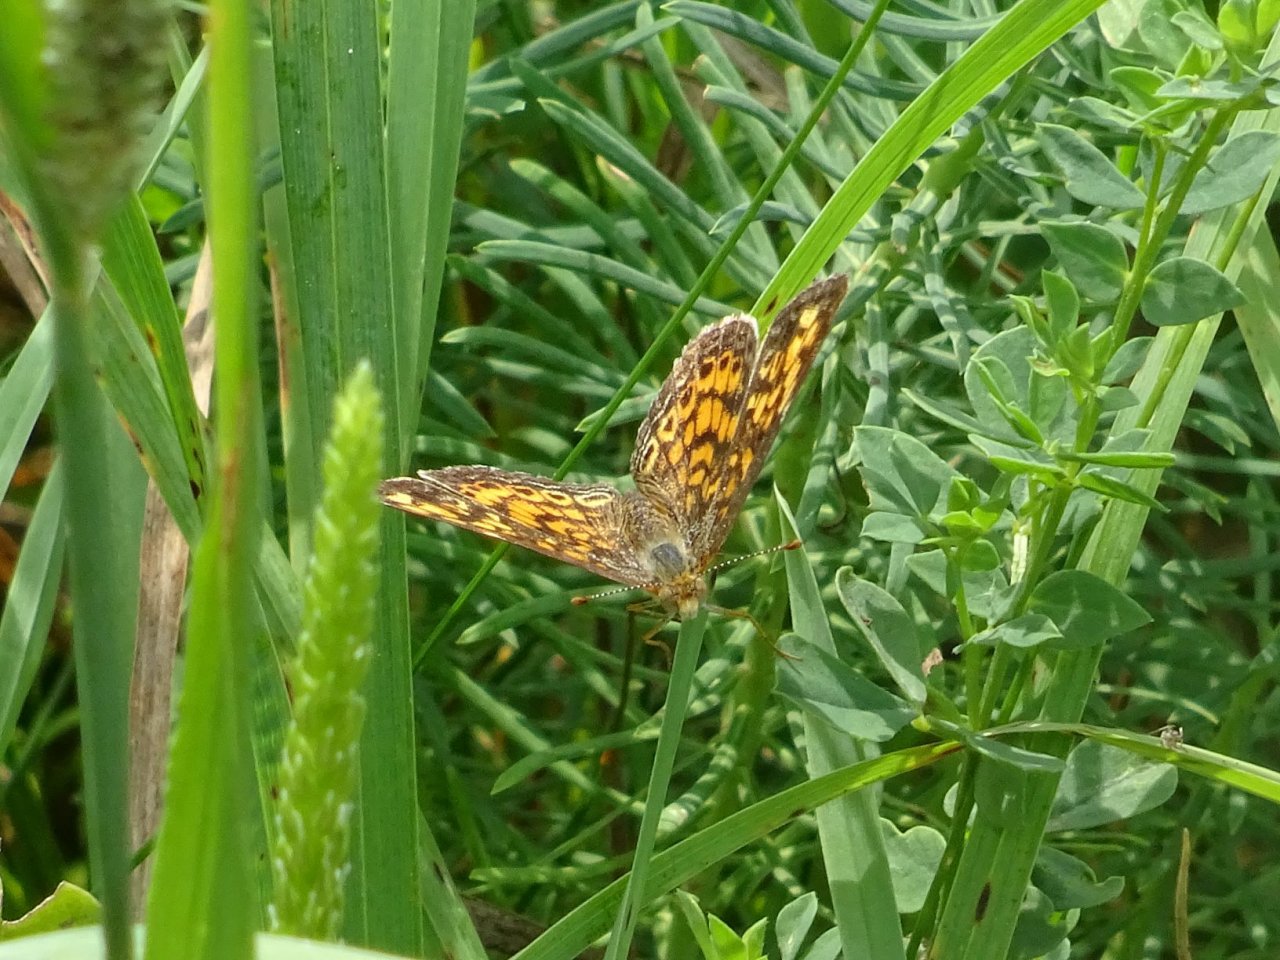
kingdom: Animalia
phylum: Arthropoda
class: Insecta
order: Lepidoptera
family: Nymphalidae
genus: Phyciodes
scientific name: Phyciodes tharos
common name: Pearl Crescent
